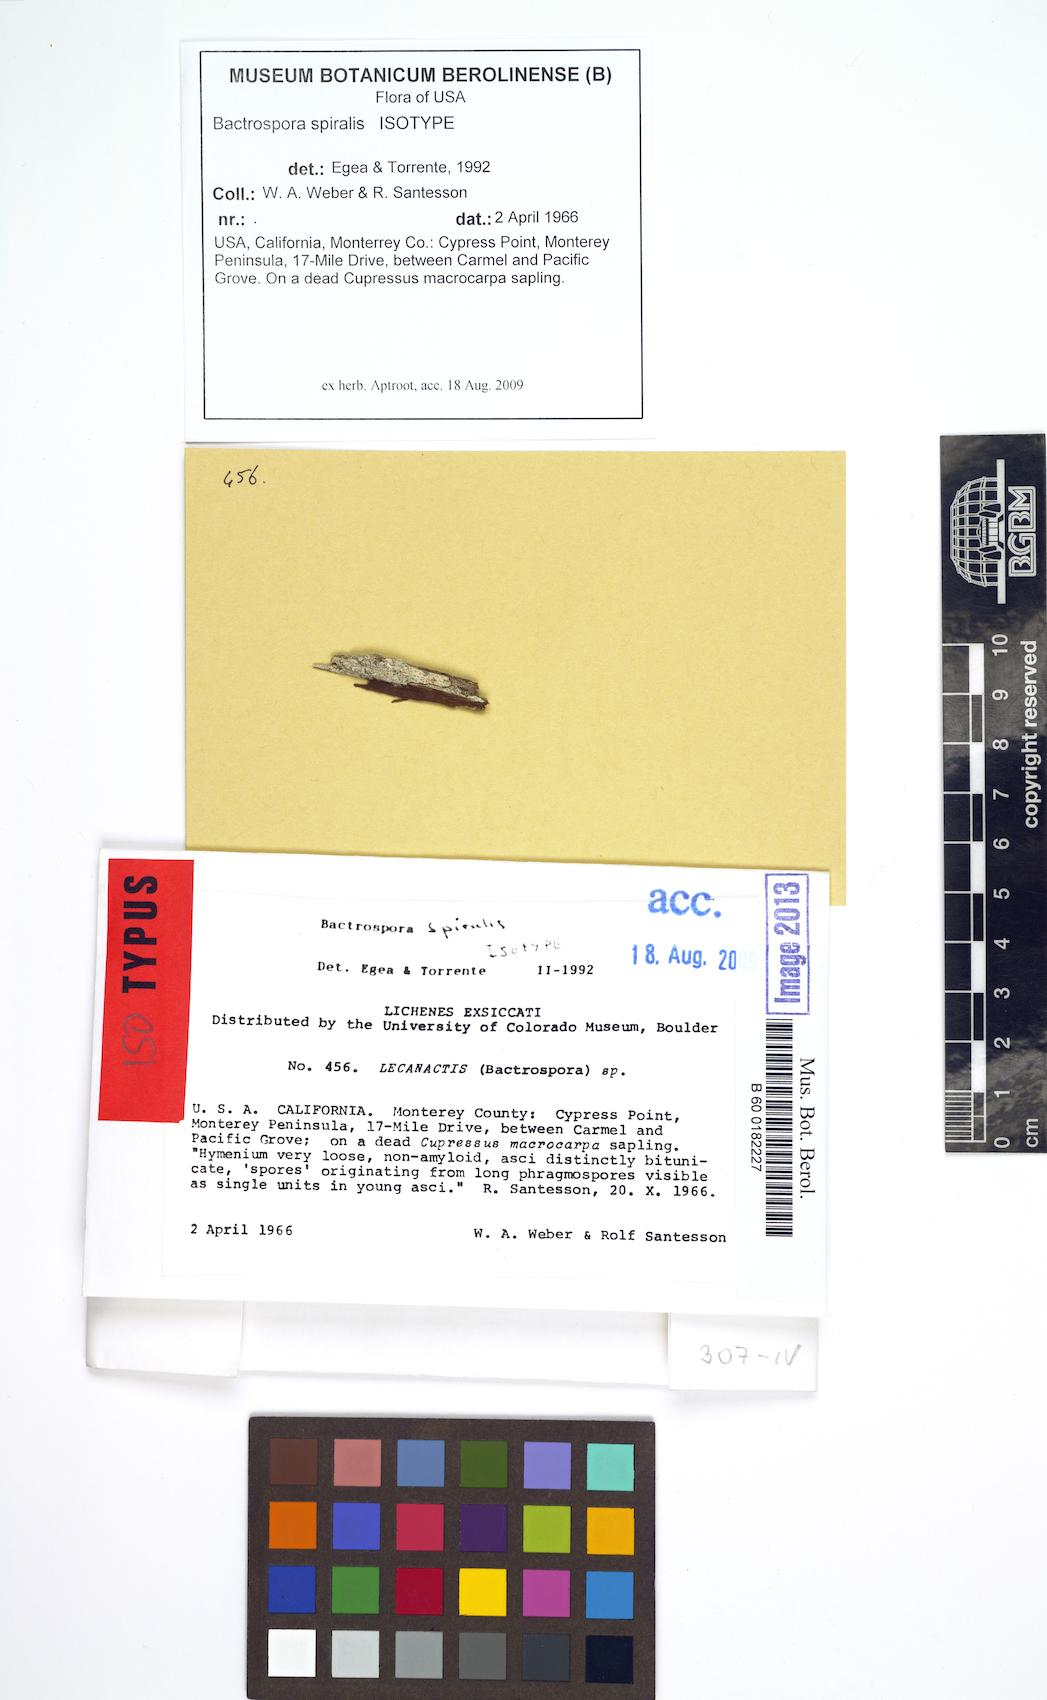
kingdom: Fungi
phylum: Ascomycota
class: Arthoniomycetes
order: Arthoniales
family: Roccellaceae
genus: Bactrospora
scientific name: Bactrospora spiralis
